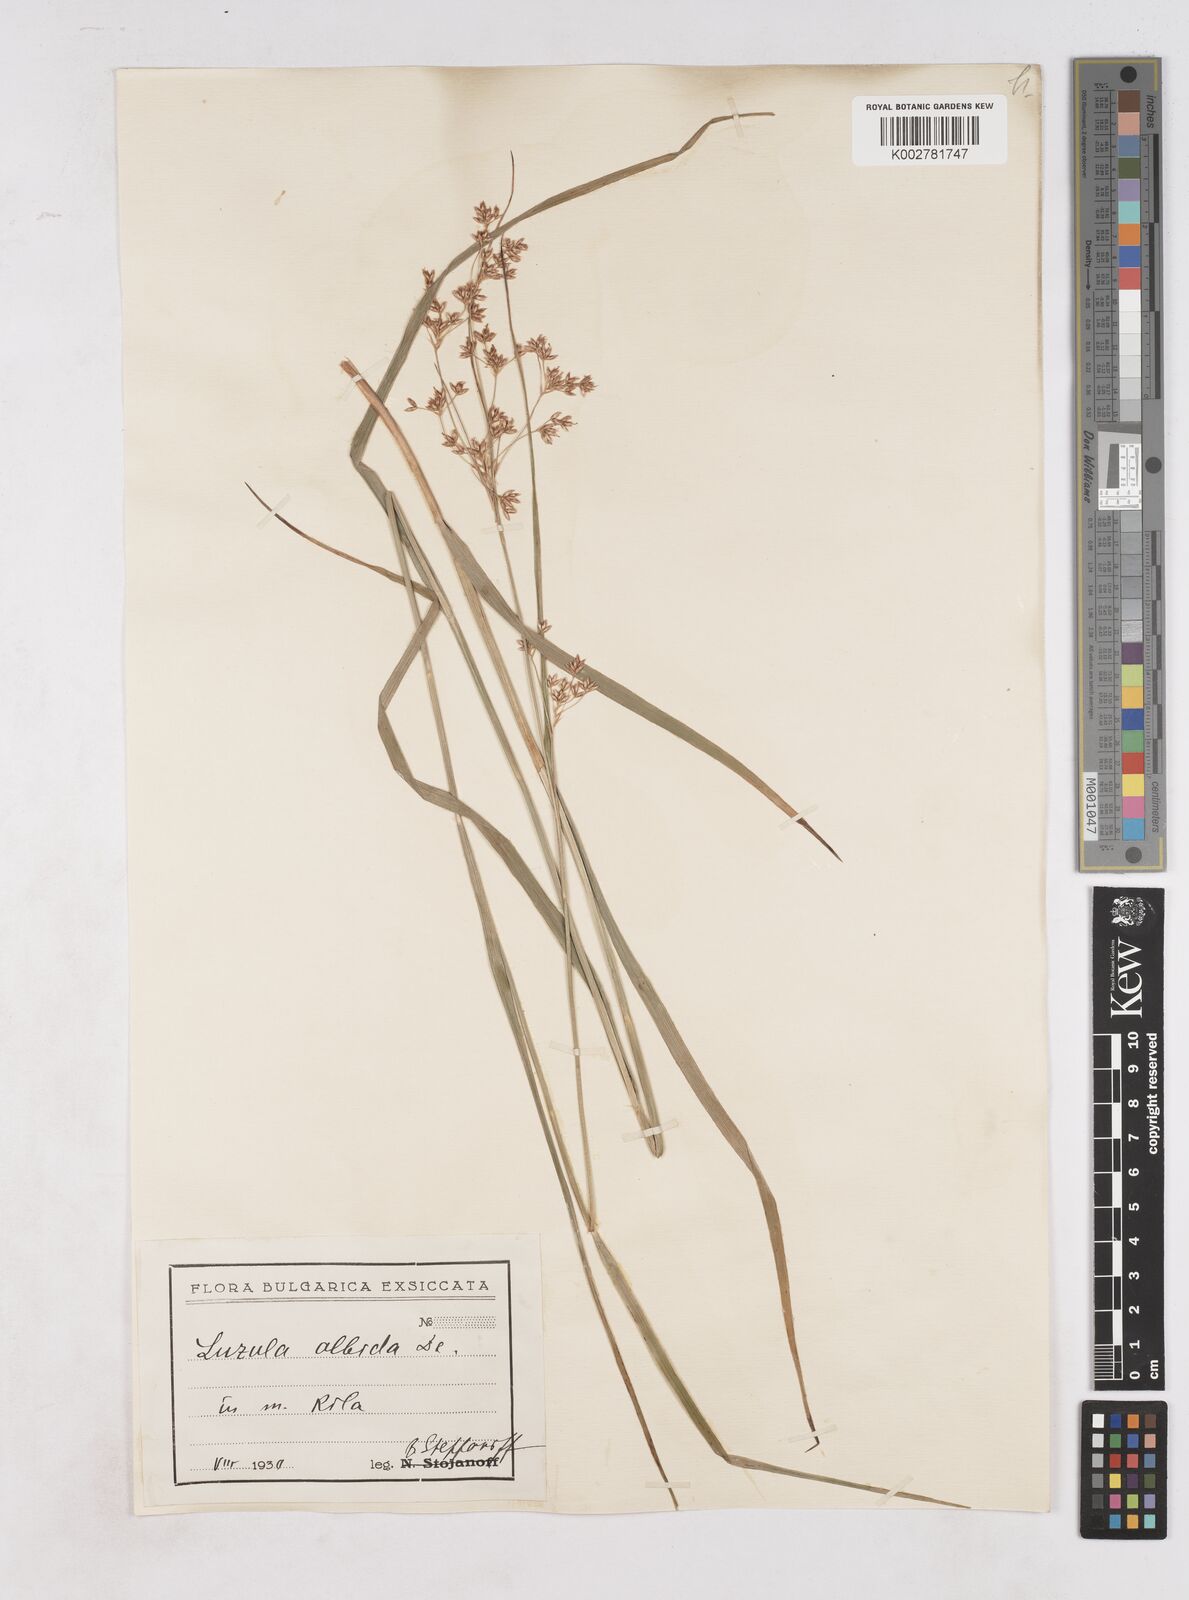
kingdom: Plantae
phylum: Tracheophyta
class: Liliopsida
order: Poales
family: Juncaceae
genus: Luzula
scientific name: Luzula luzuloides
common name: White wood-rush
